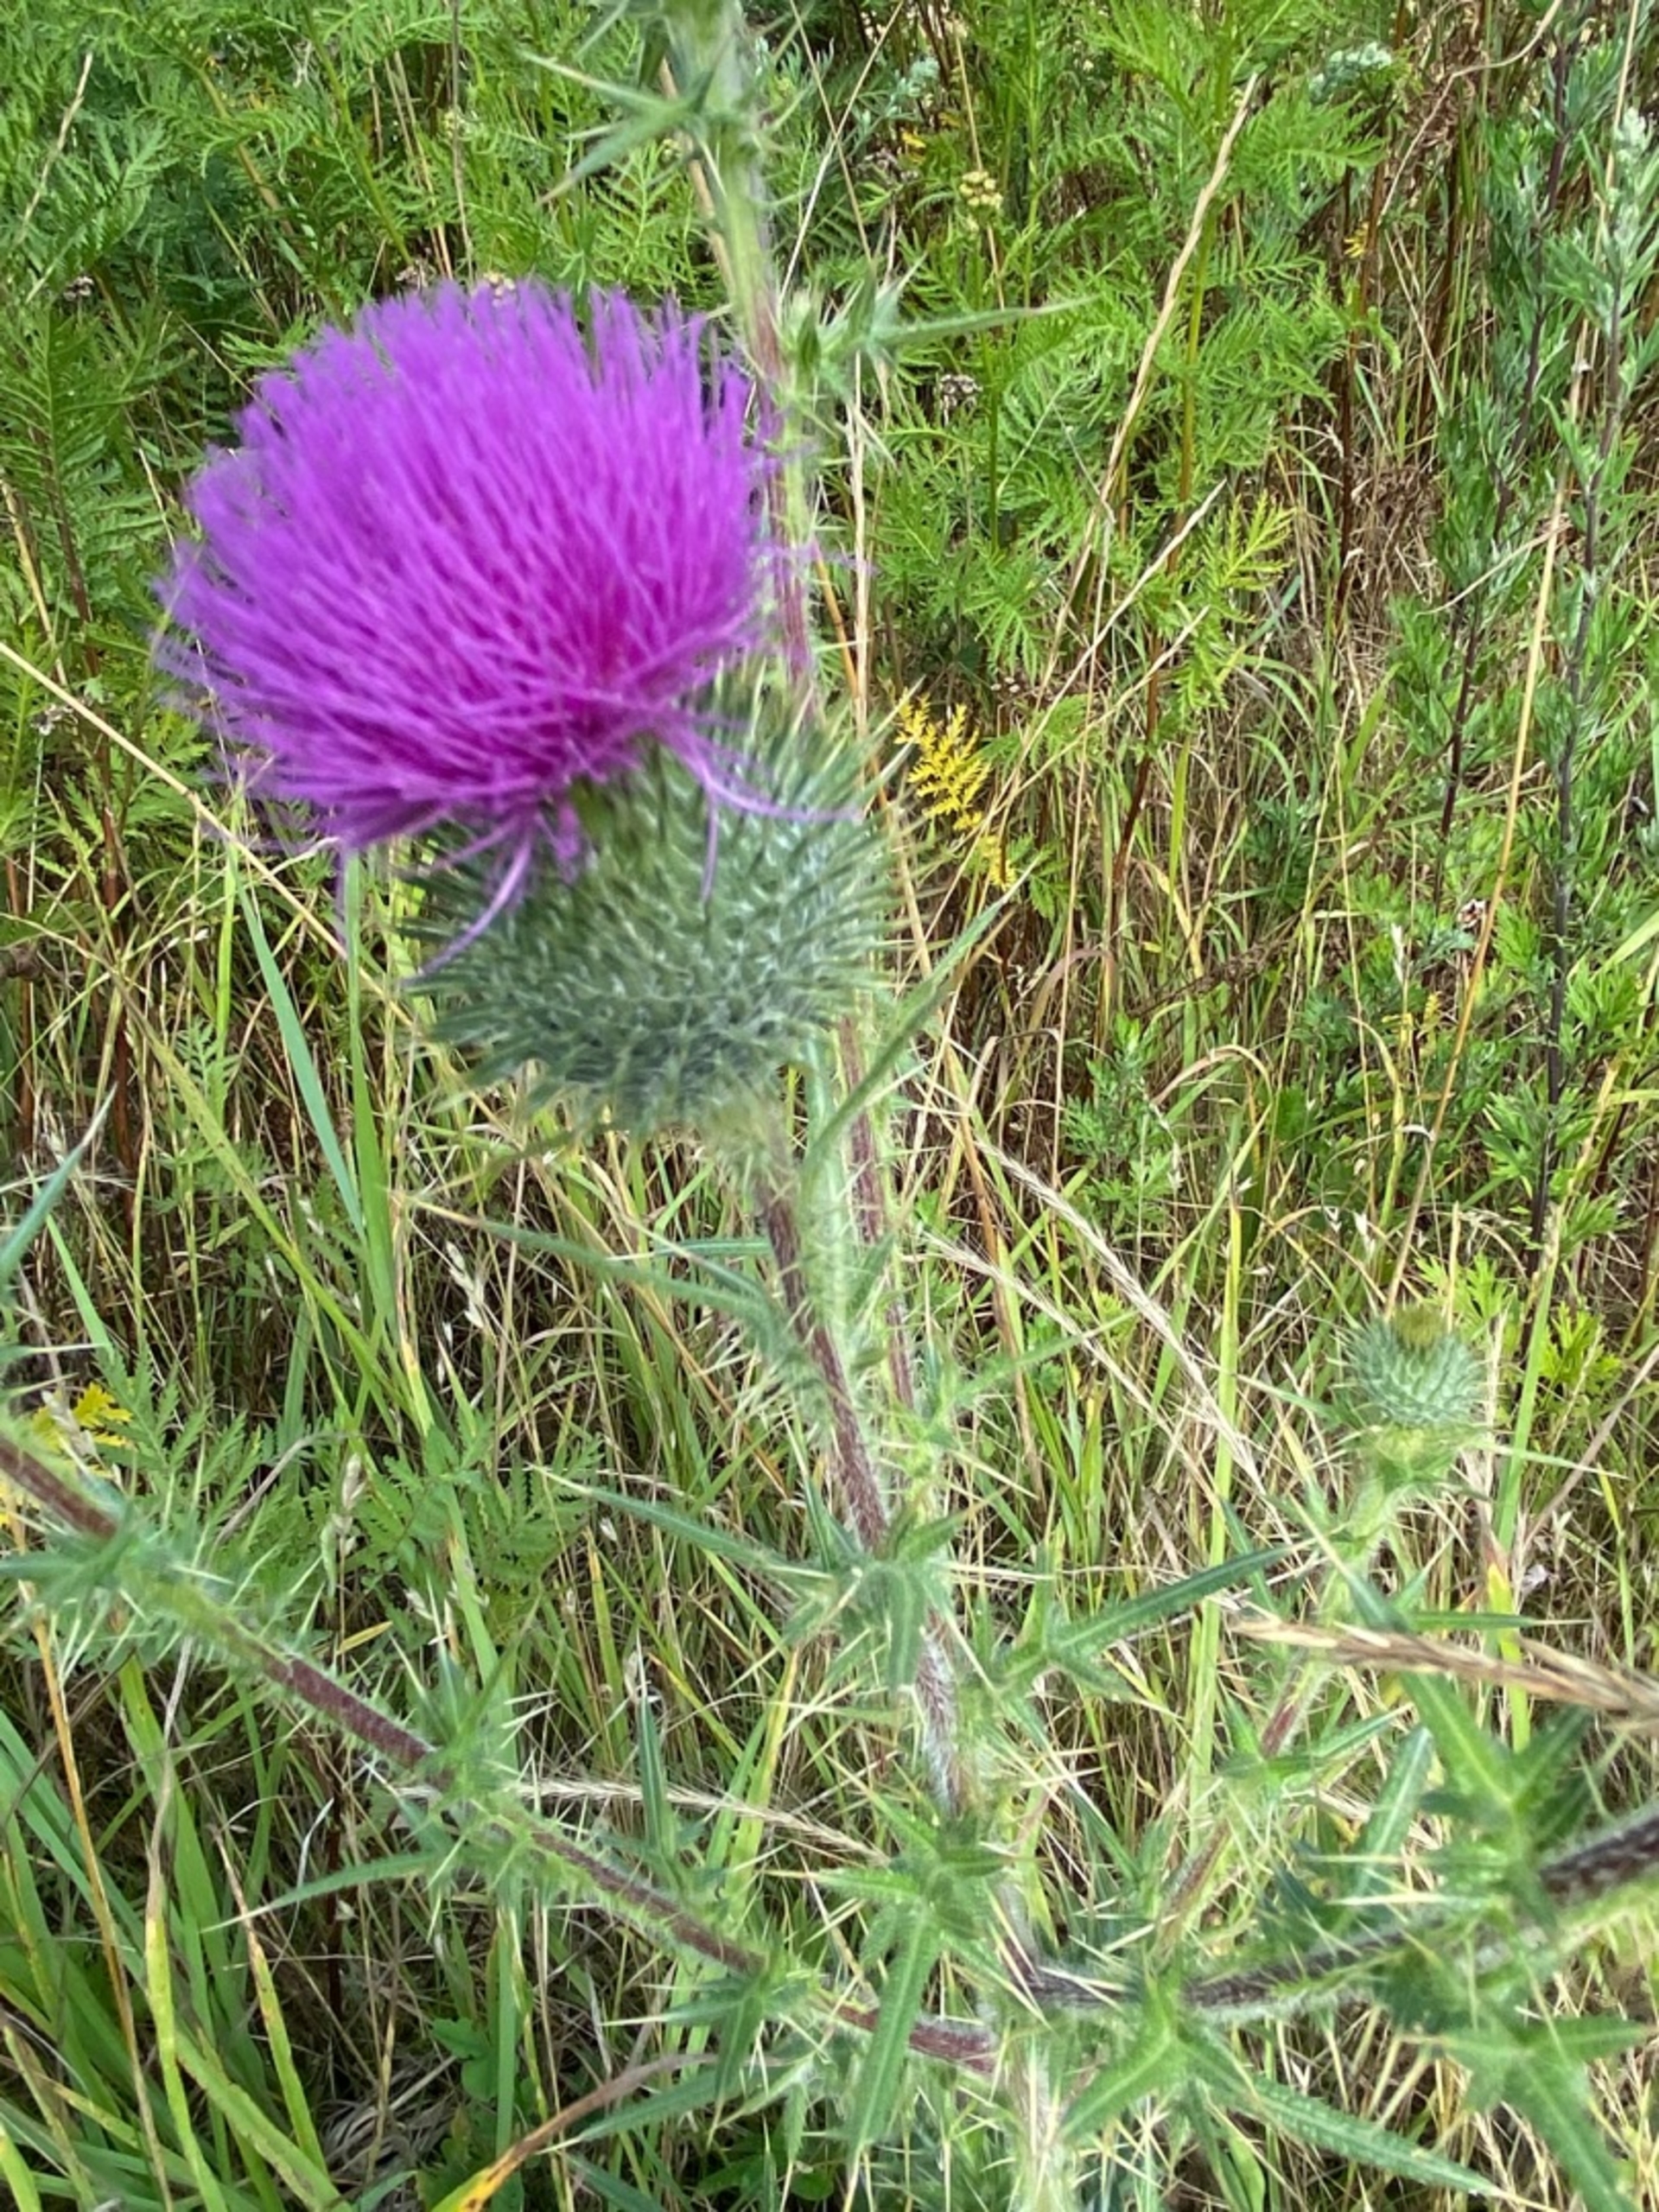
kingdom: Plantae
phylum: Tracheophyta
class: Magnoliopsida
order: Asterales
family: Asteraceae
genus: Cirsium
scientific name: Cirsium vulgare
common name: Horse-tidsel
